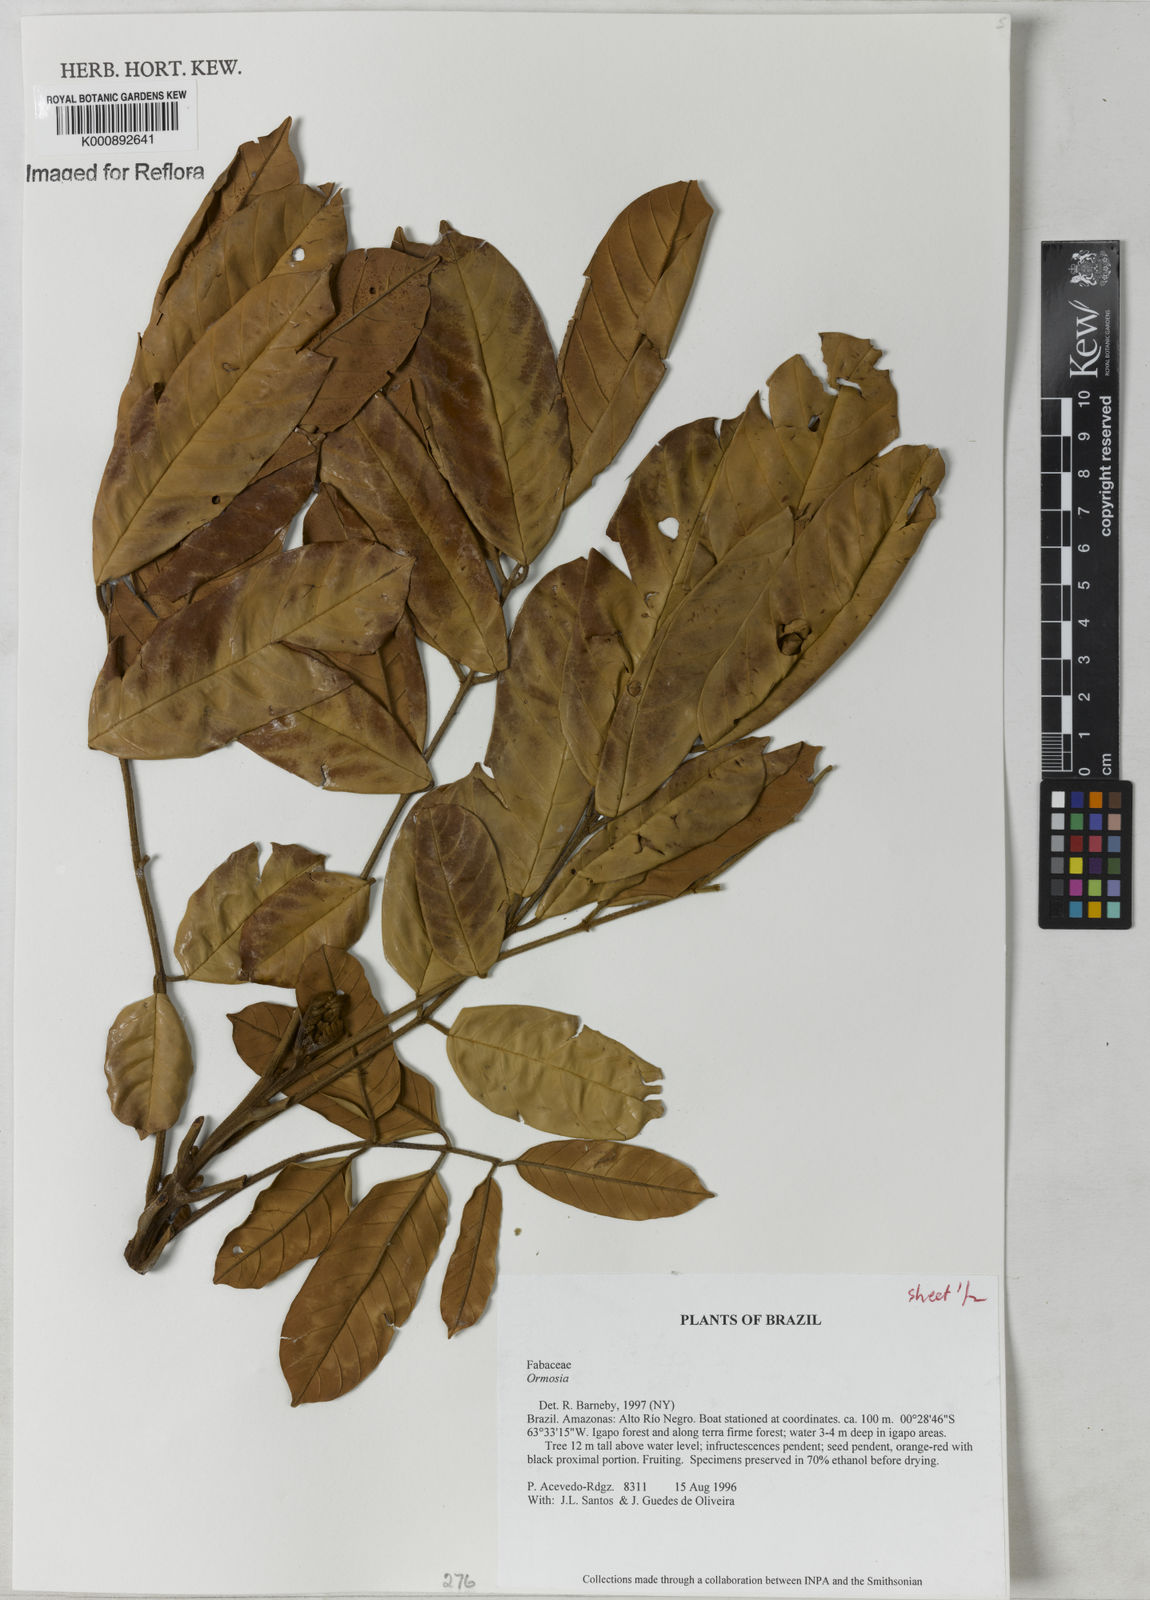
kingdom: Plantae
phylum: Tracheophyta
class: Magnoliopsida
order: Fabales
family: Fabaceae
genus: Ormosia
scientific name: Ormosia
